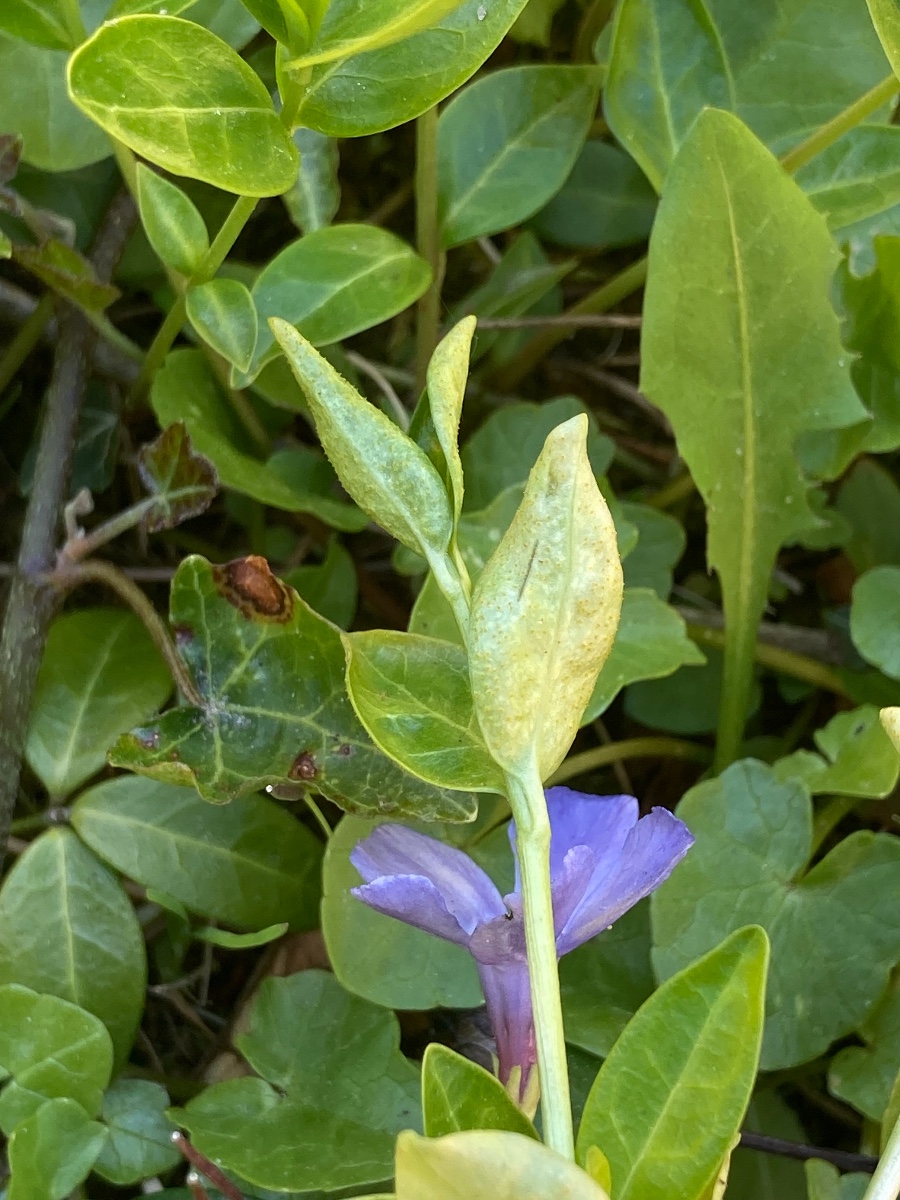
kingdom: Fungi
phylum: Basidiomycota
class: Pucciniomycetes
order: Pucciniales
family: Pucciniaceae
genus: Puccinia
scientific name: Puccinia cribrata
